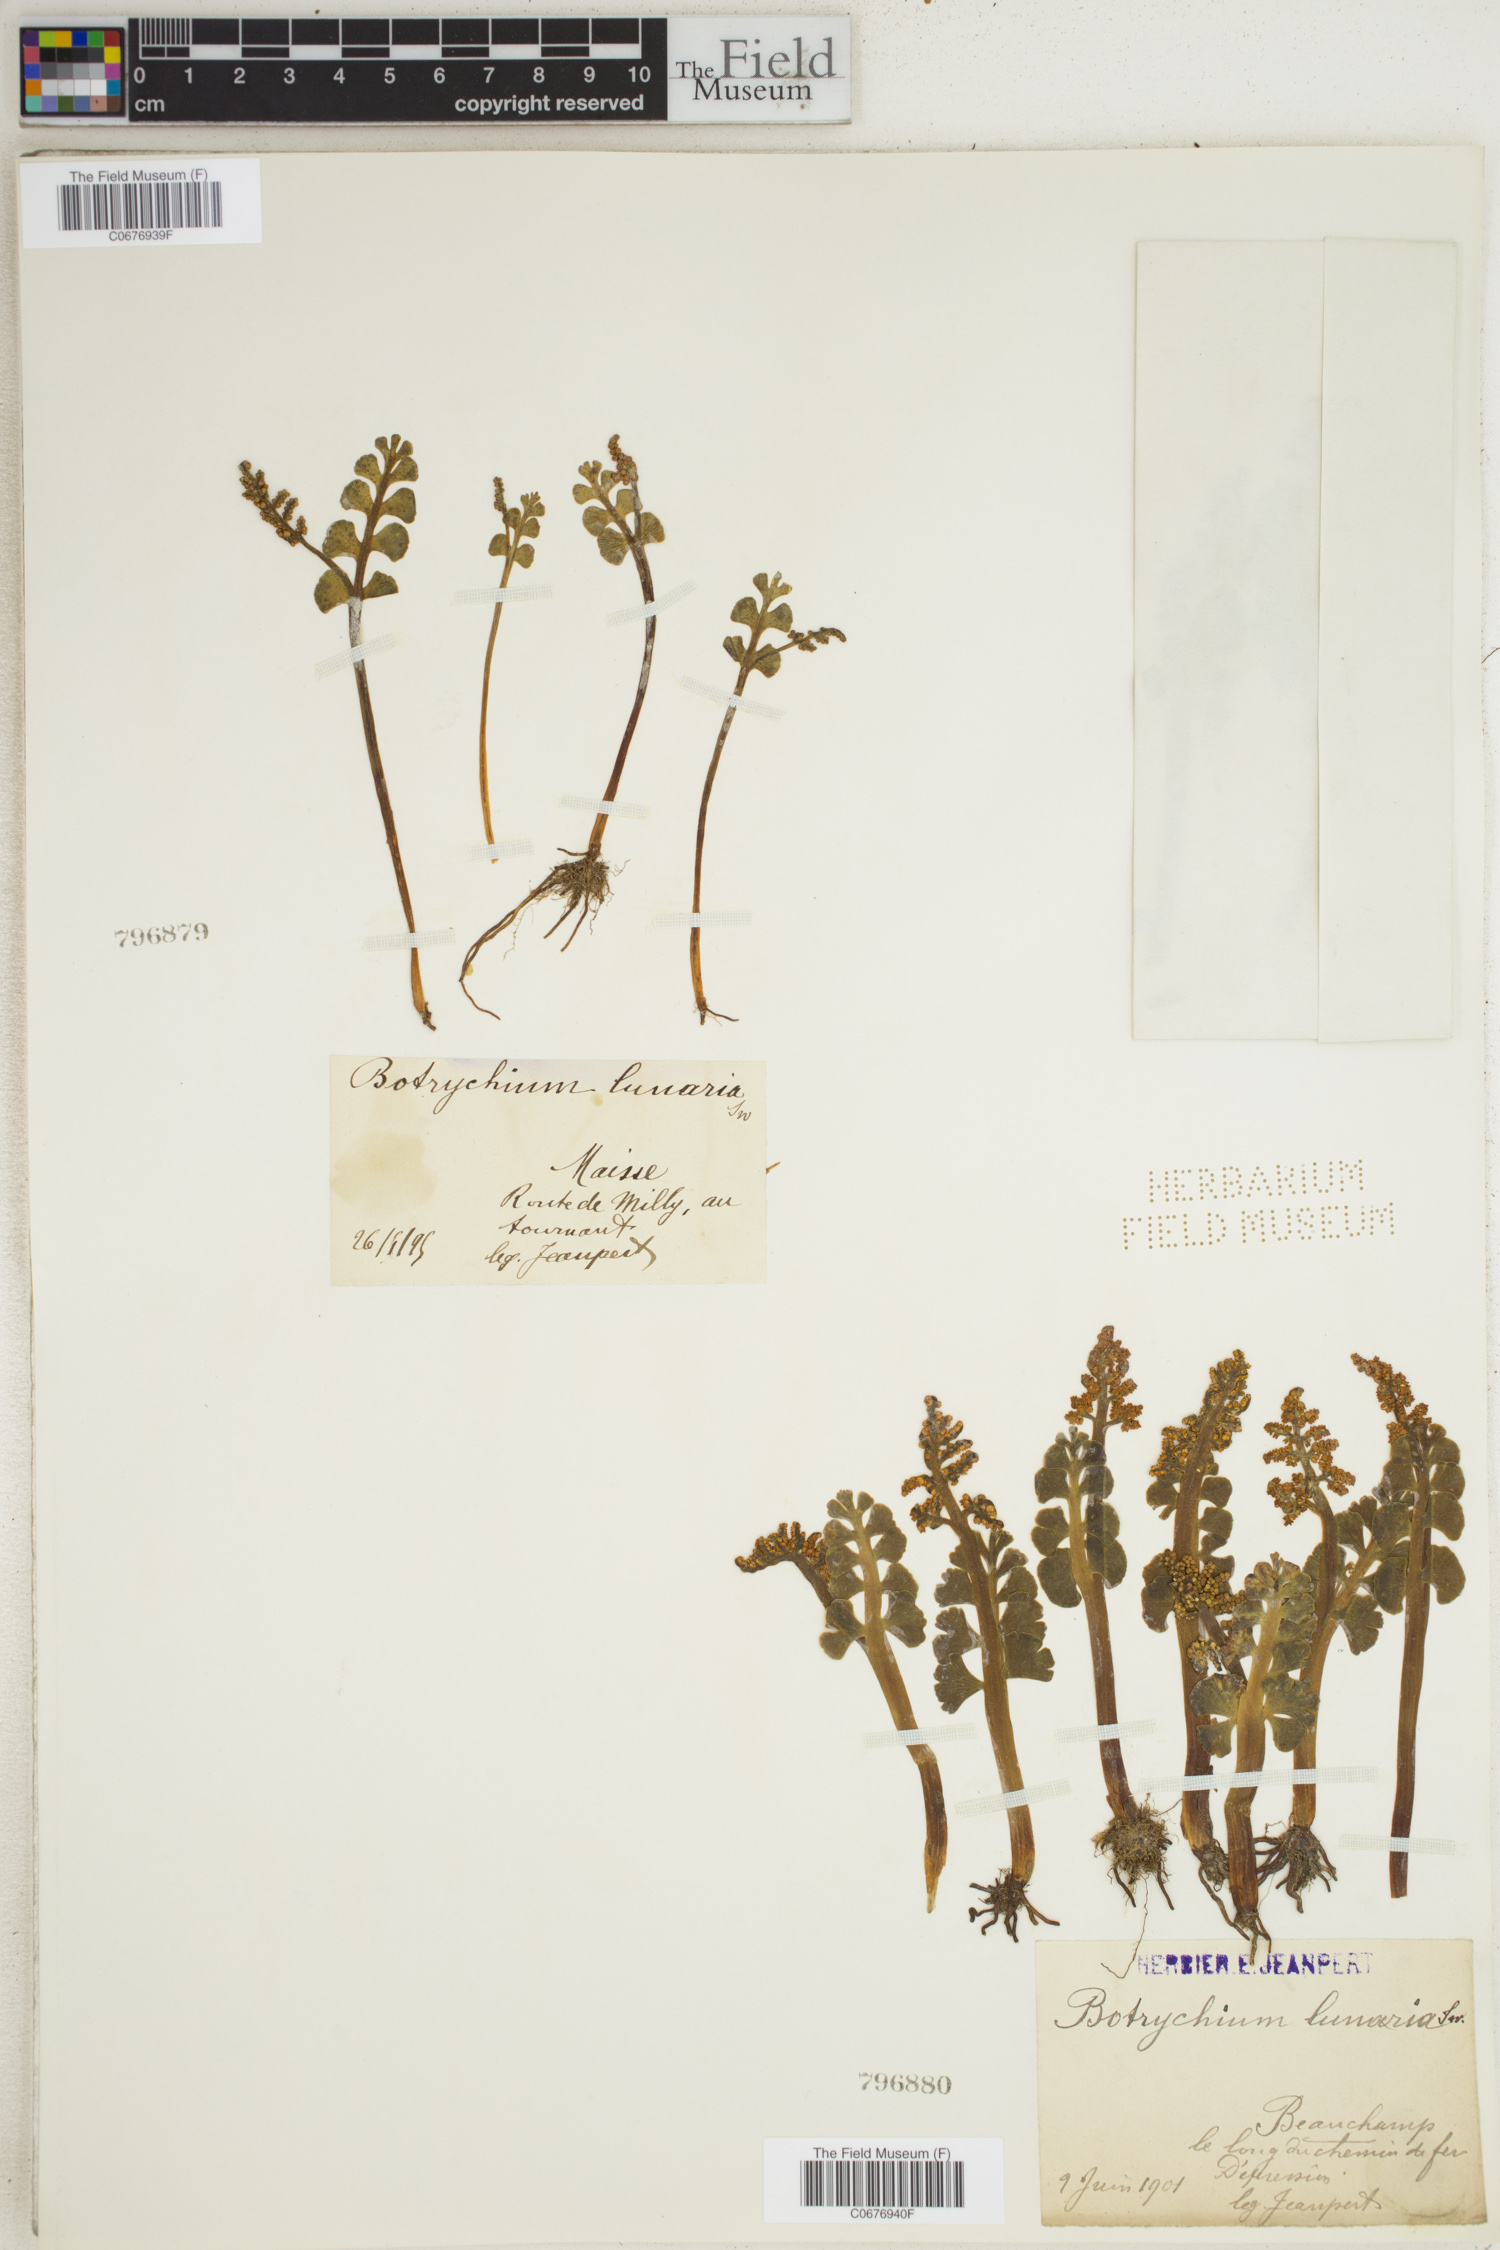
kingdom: Plantae
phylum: Tracheophyta
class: Polypodiopsida
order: Ophioglossales
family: Ophioglossaceae
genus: Botrychium
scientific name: Botrychium lunaria
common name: Moonwort
